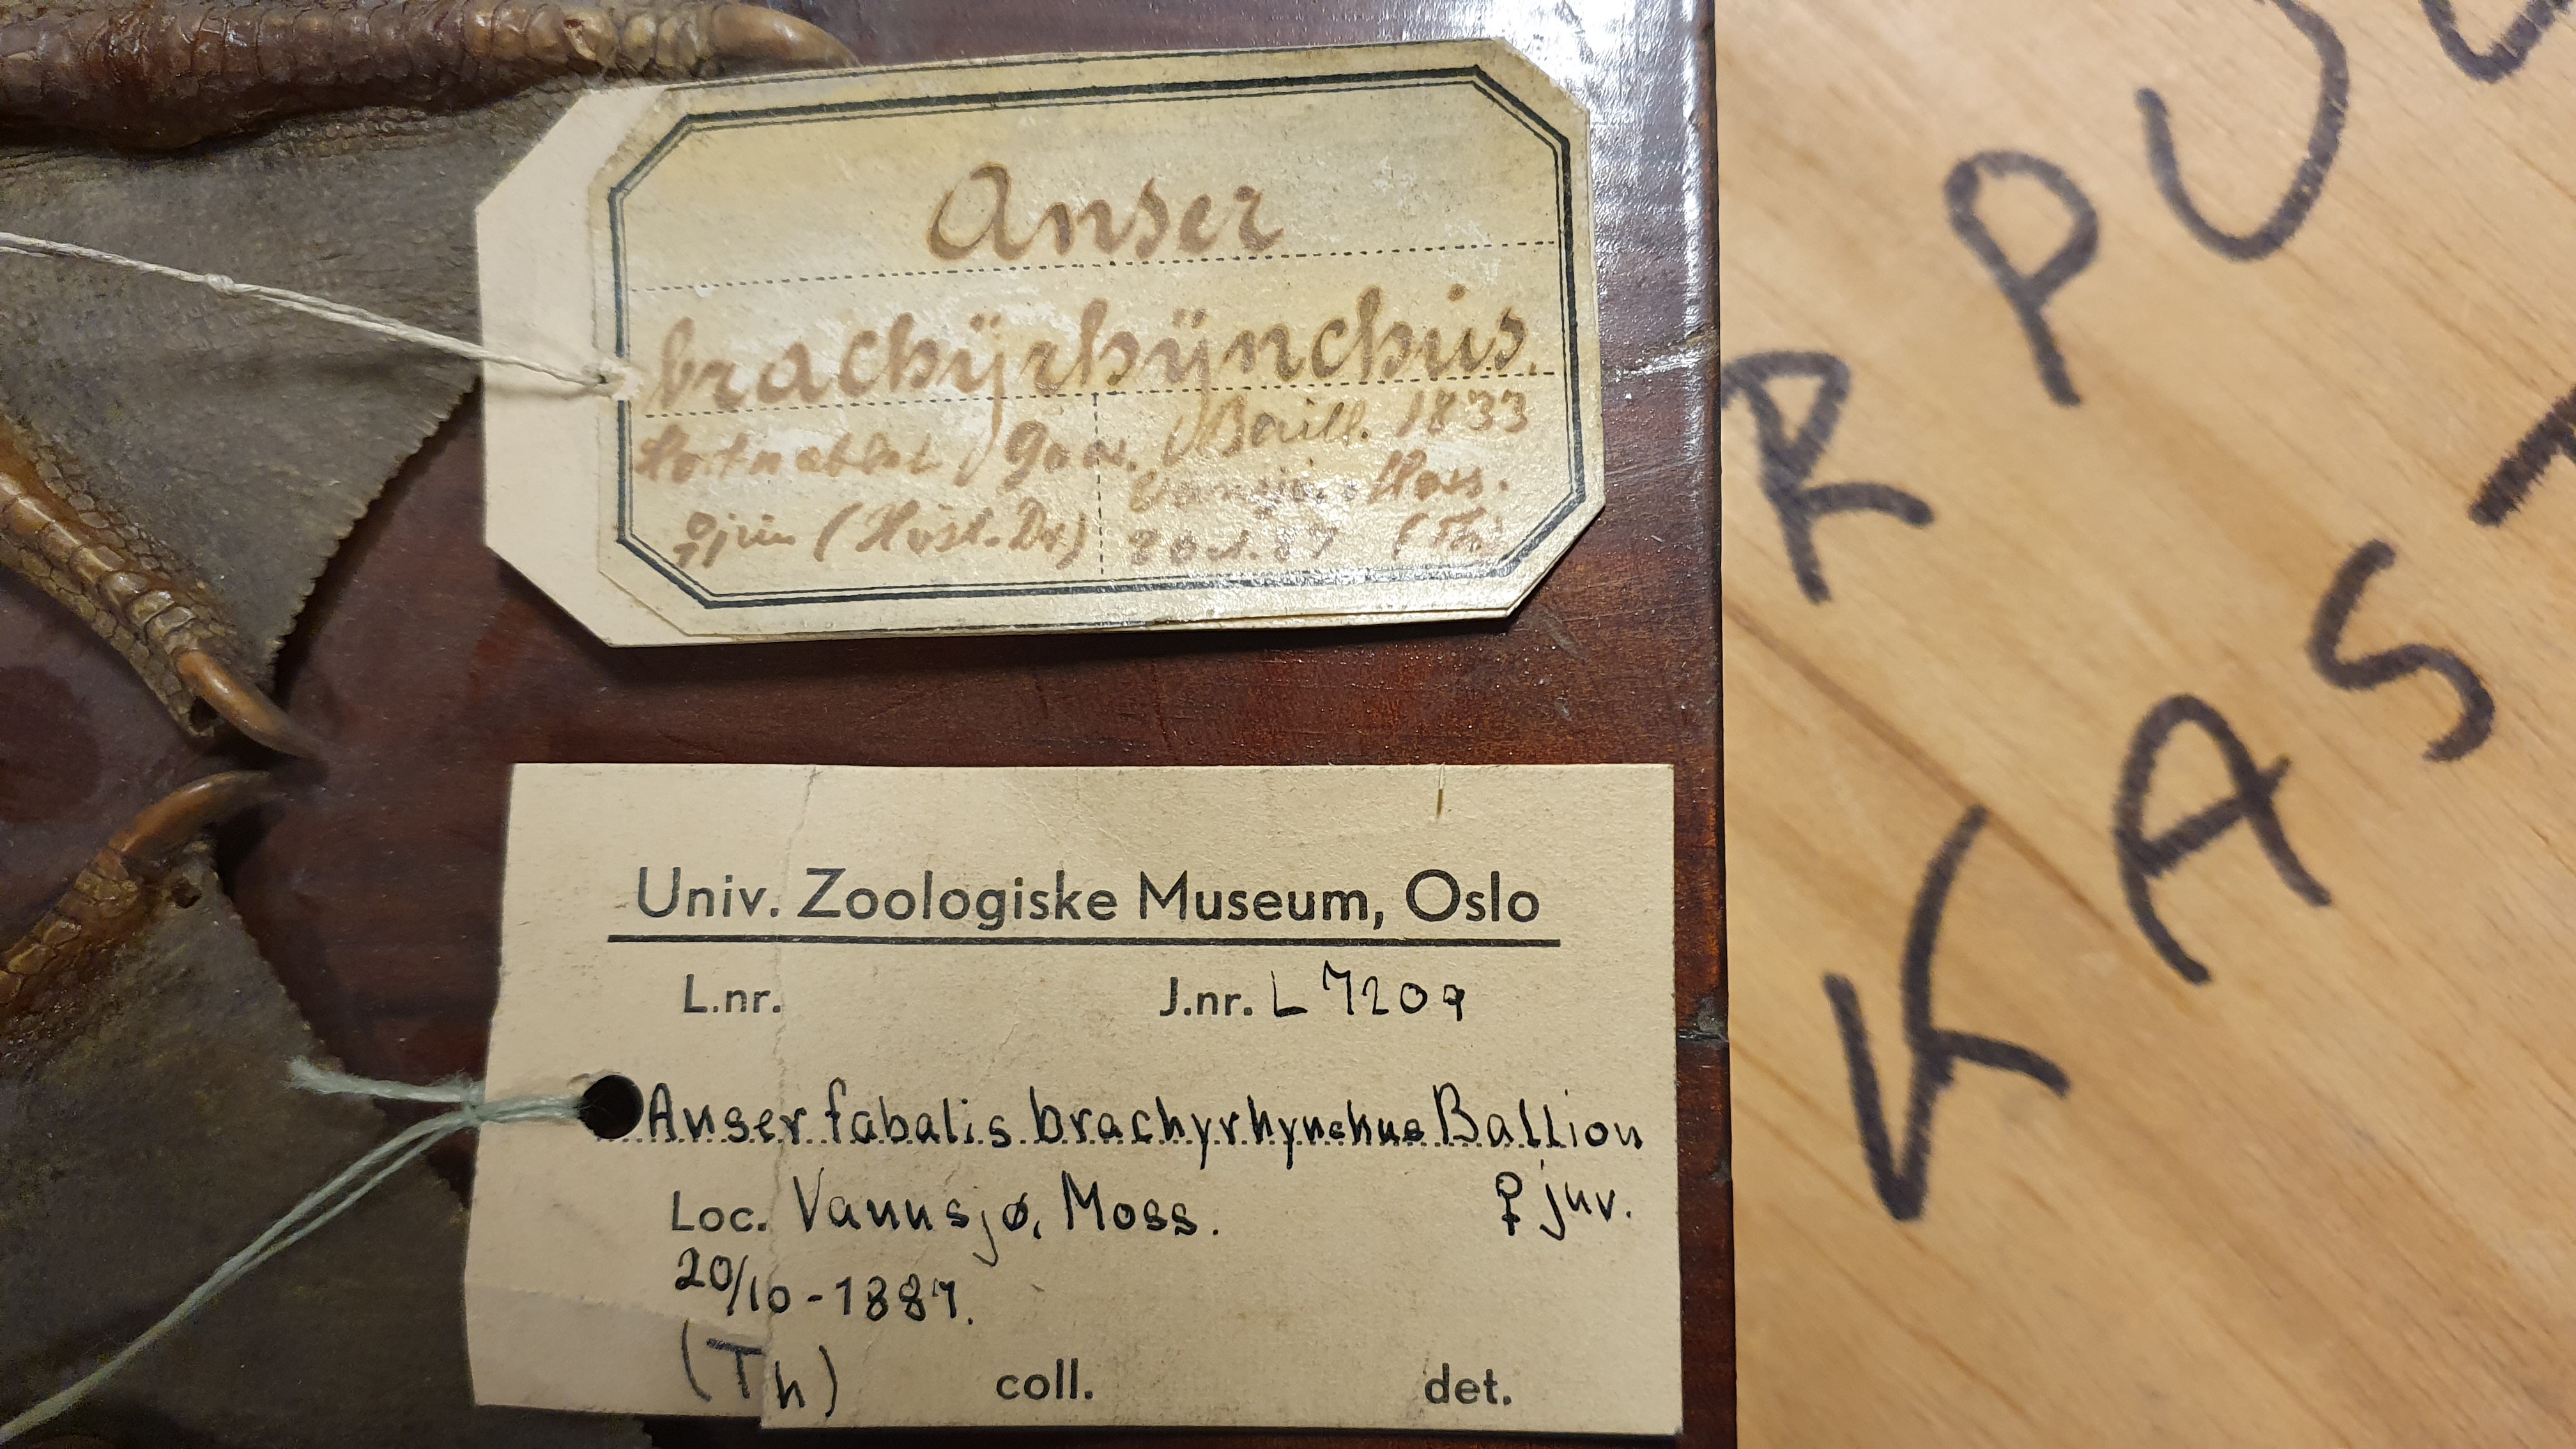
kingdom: Animalia
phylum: Chordata
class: Aves
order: Anseriformes
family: Anatidae
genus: Anser
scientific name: Anser brachyrhynchus
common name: Pink-footed goose
